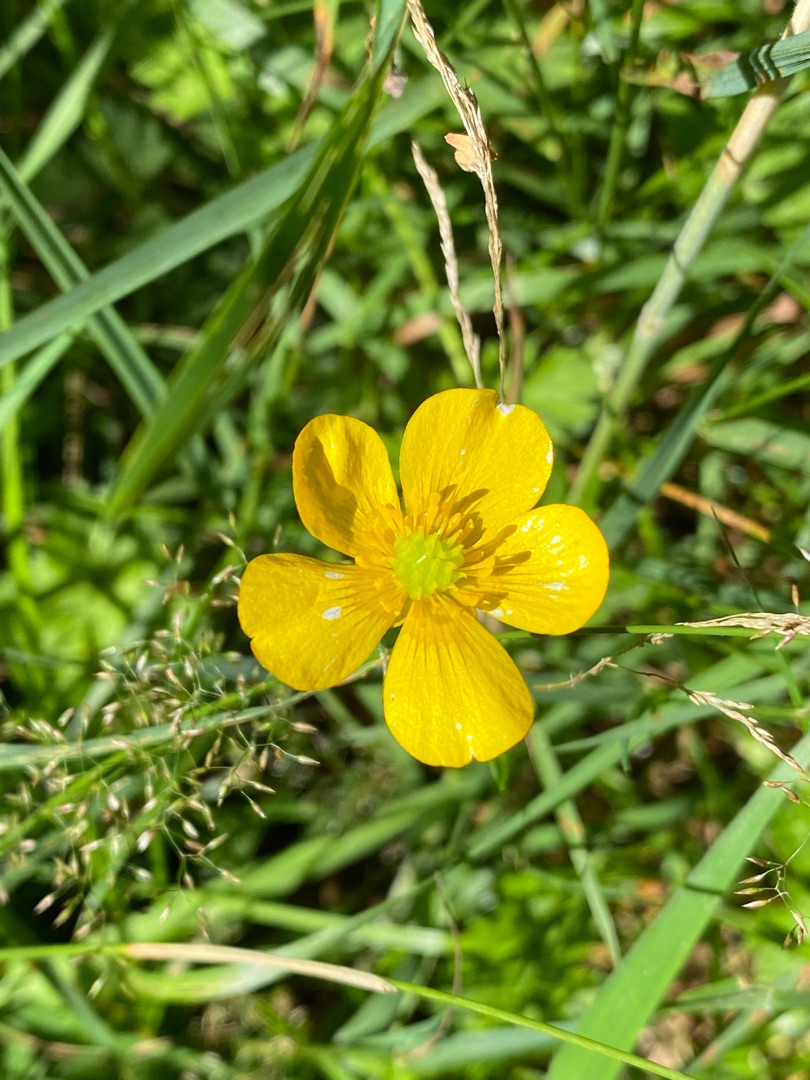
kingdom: Plantae
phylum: Tracheophyta
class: Magnoliopsida
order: Ranunculales
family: Ranunculaceae
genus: Ranunculus
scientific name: Ranunculus
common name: Ranunkelslægten
